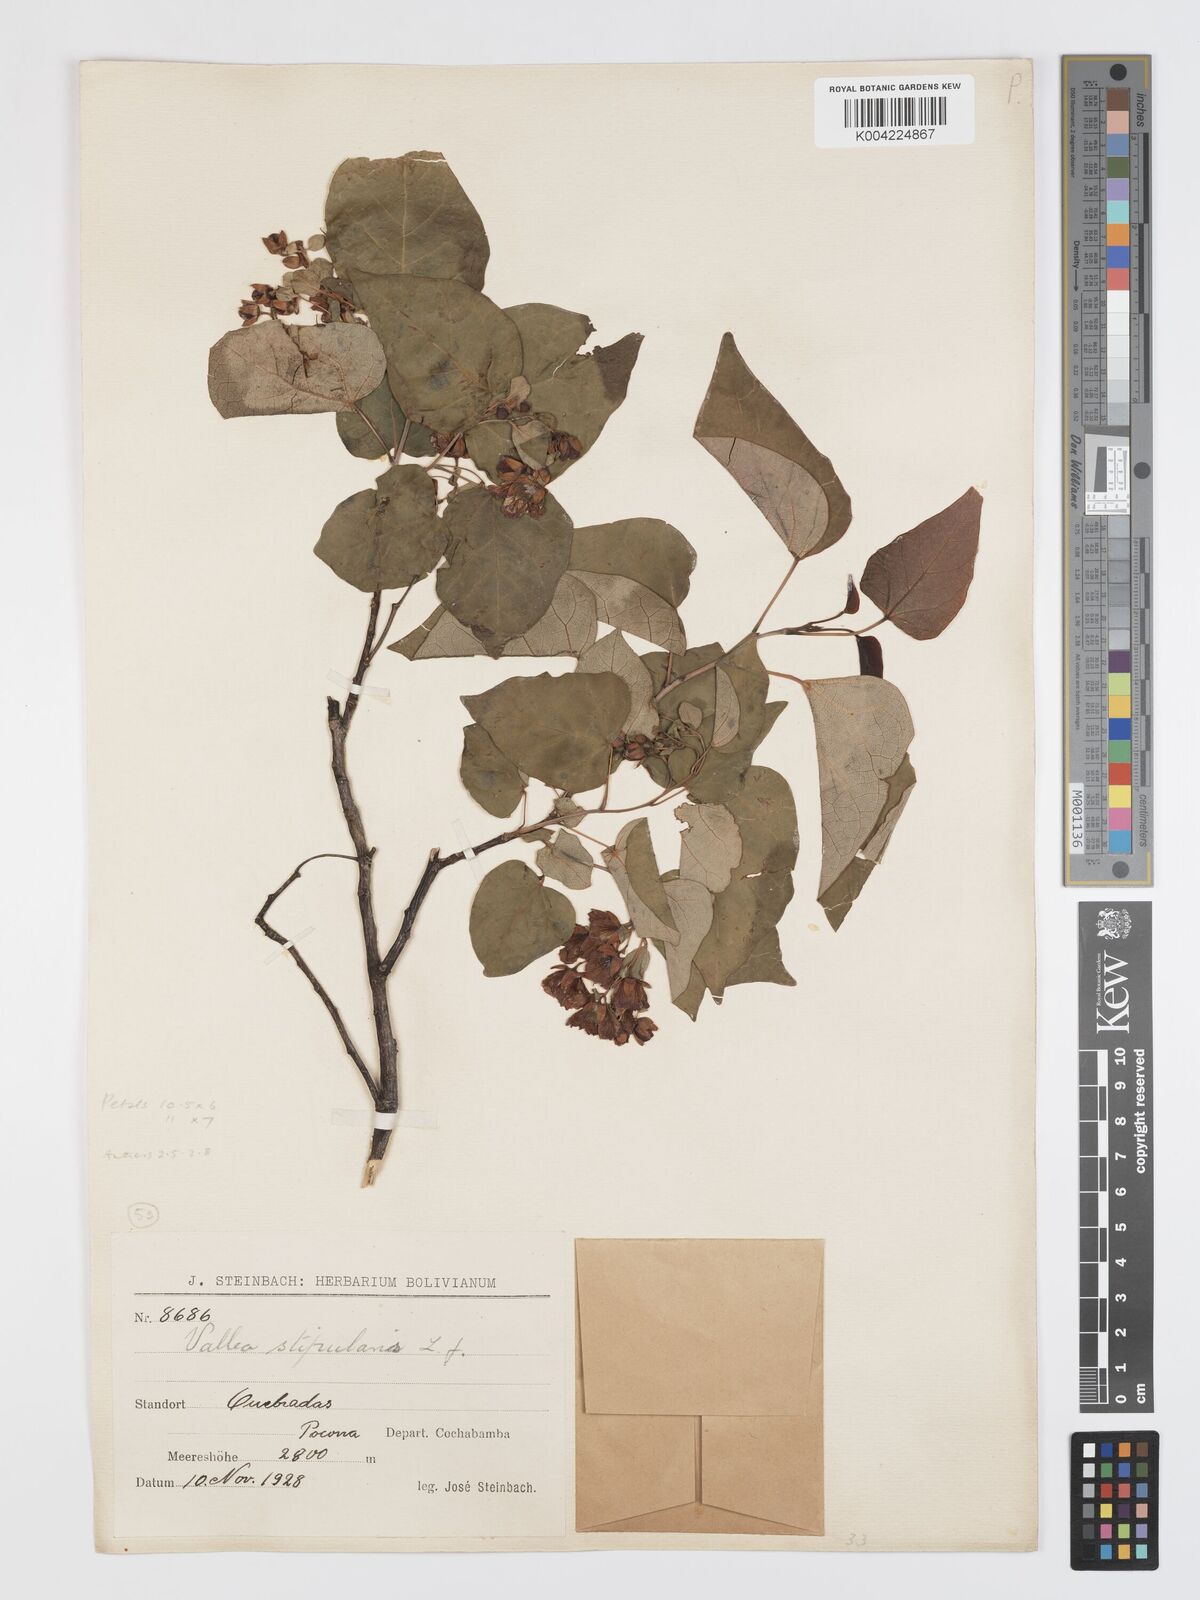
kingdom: Plantae
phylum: Tracheophyta
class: Magnoliopsida
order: Oxalidales
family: Elaeocarpaceae
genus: Vallea
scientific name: Vallea stipularis
